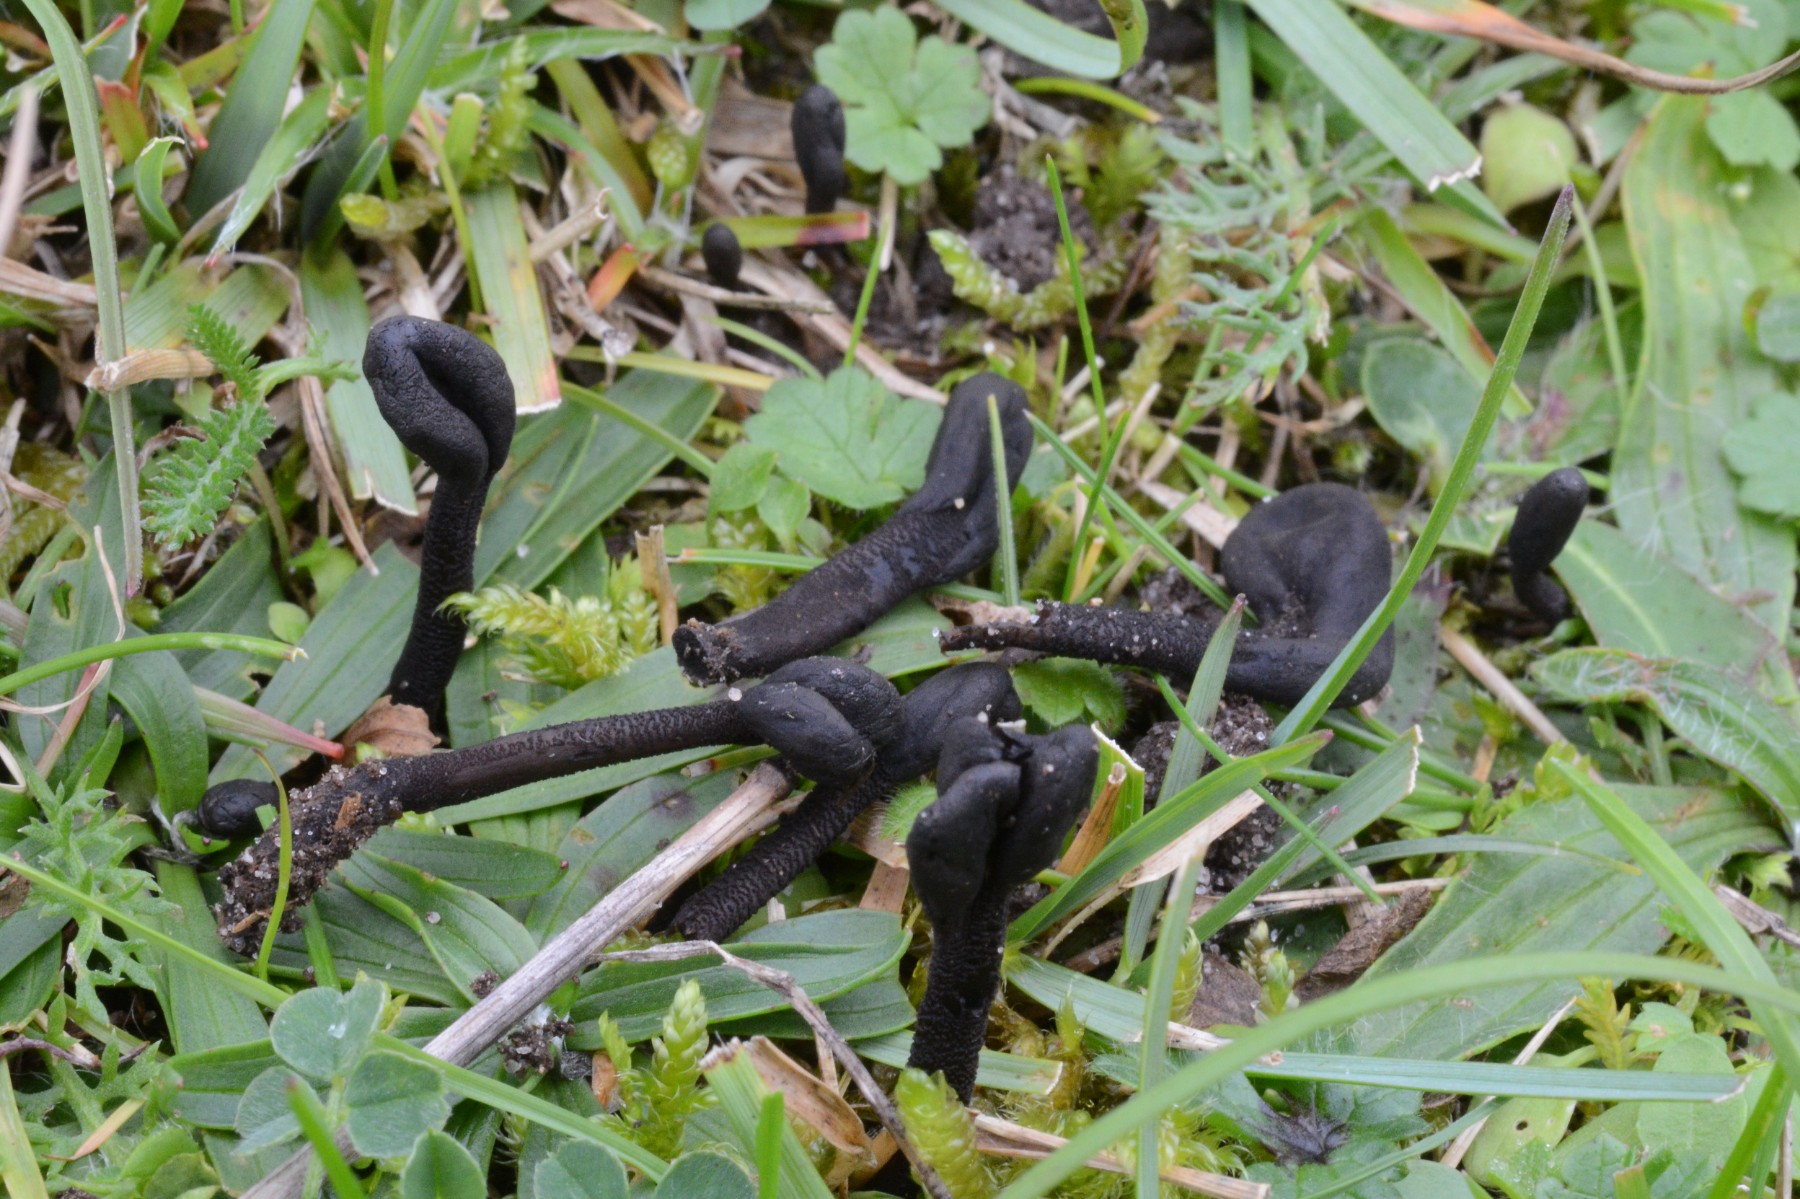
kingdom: Fungi
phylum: Ascomycota
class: Geoglossomycetes
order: Geoglossales
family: Geoglossaceae
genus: Hemileucoglossum
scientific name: Hemileucoglossum elongatum
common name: småsporet jordtunge
